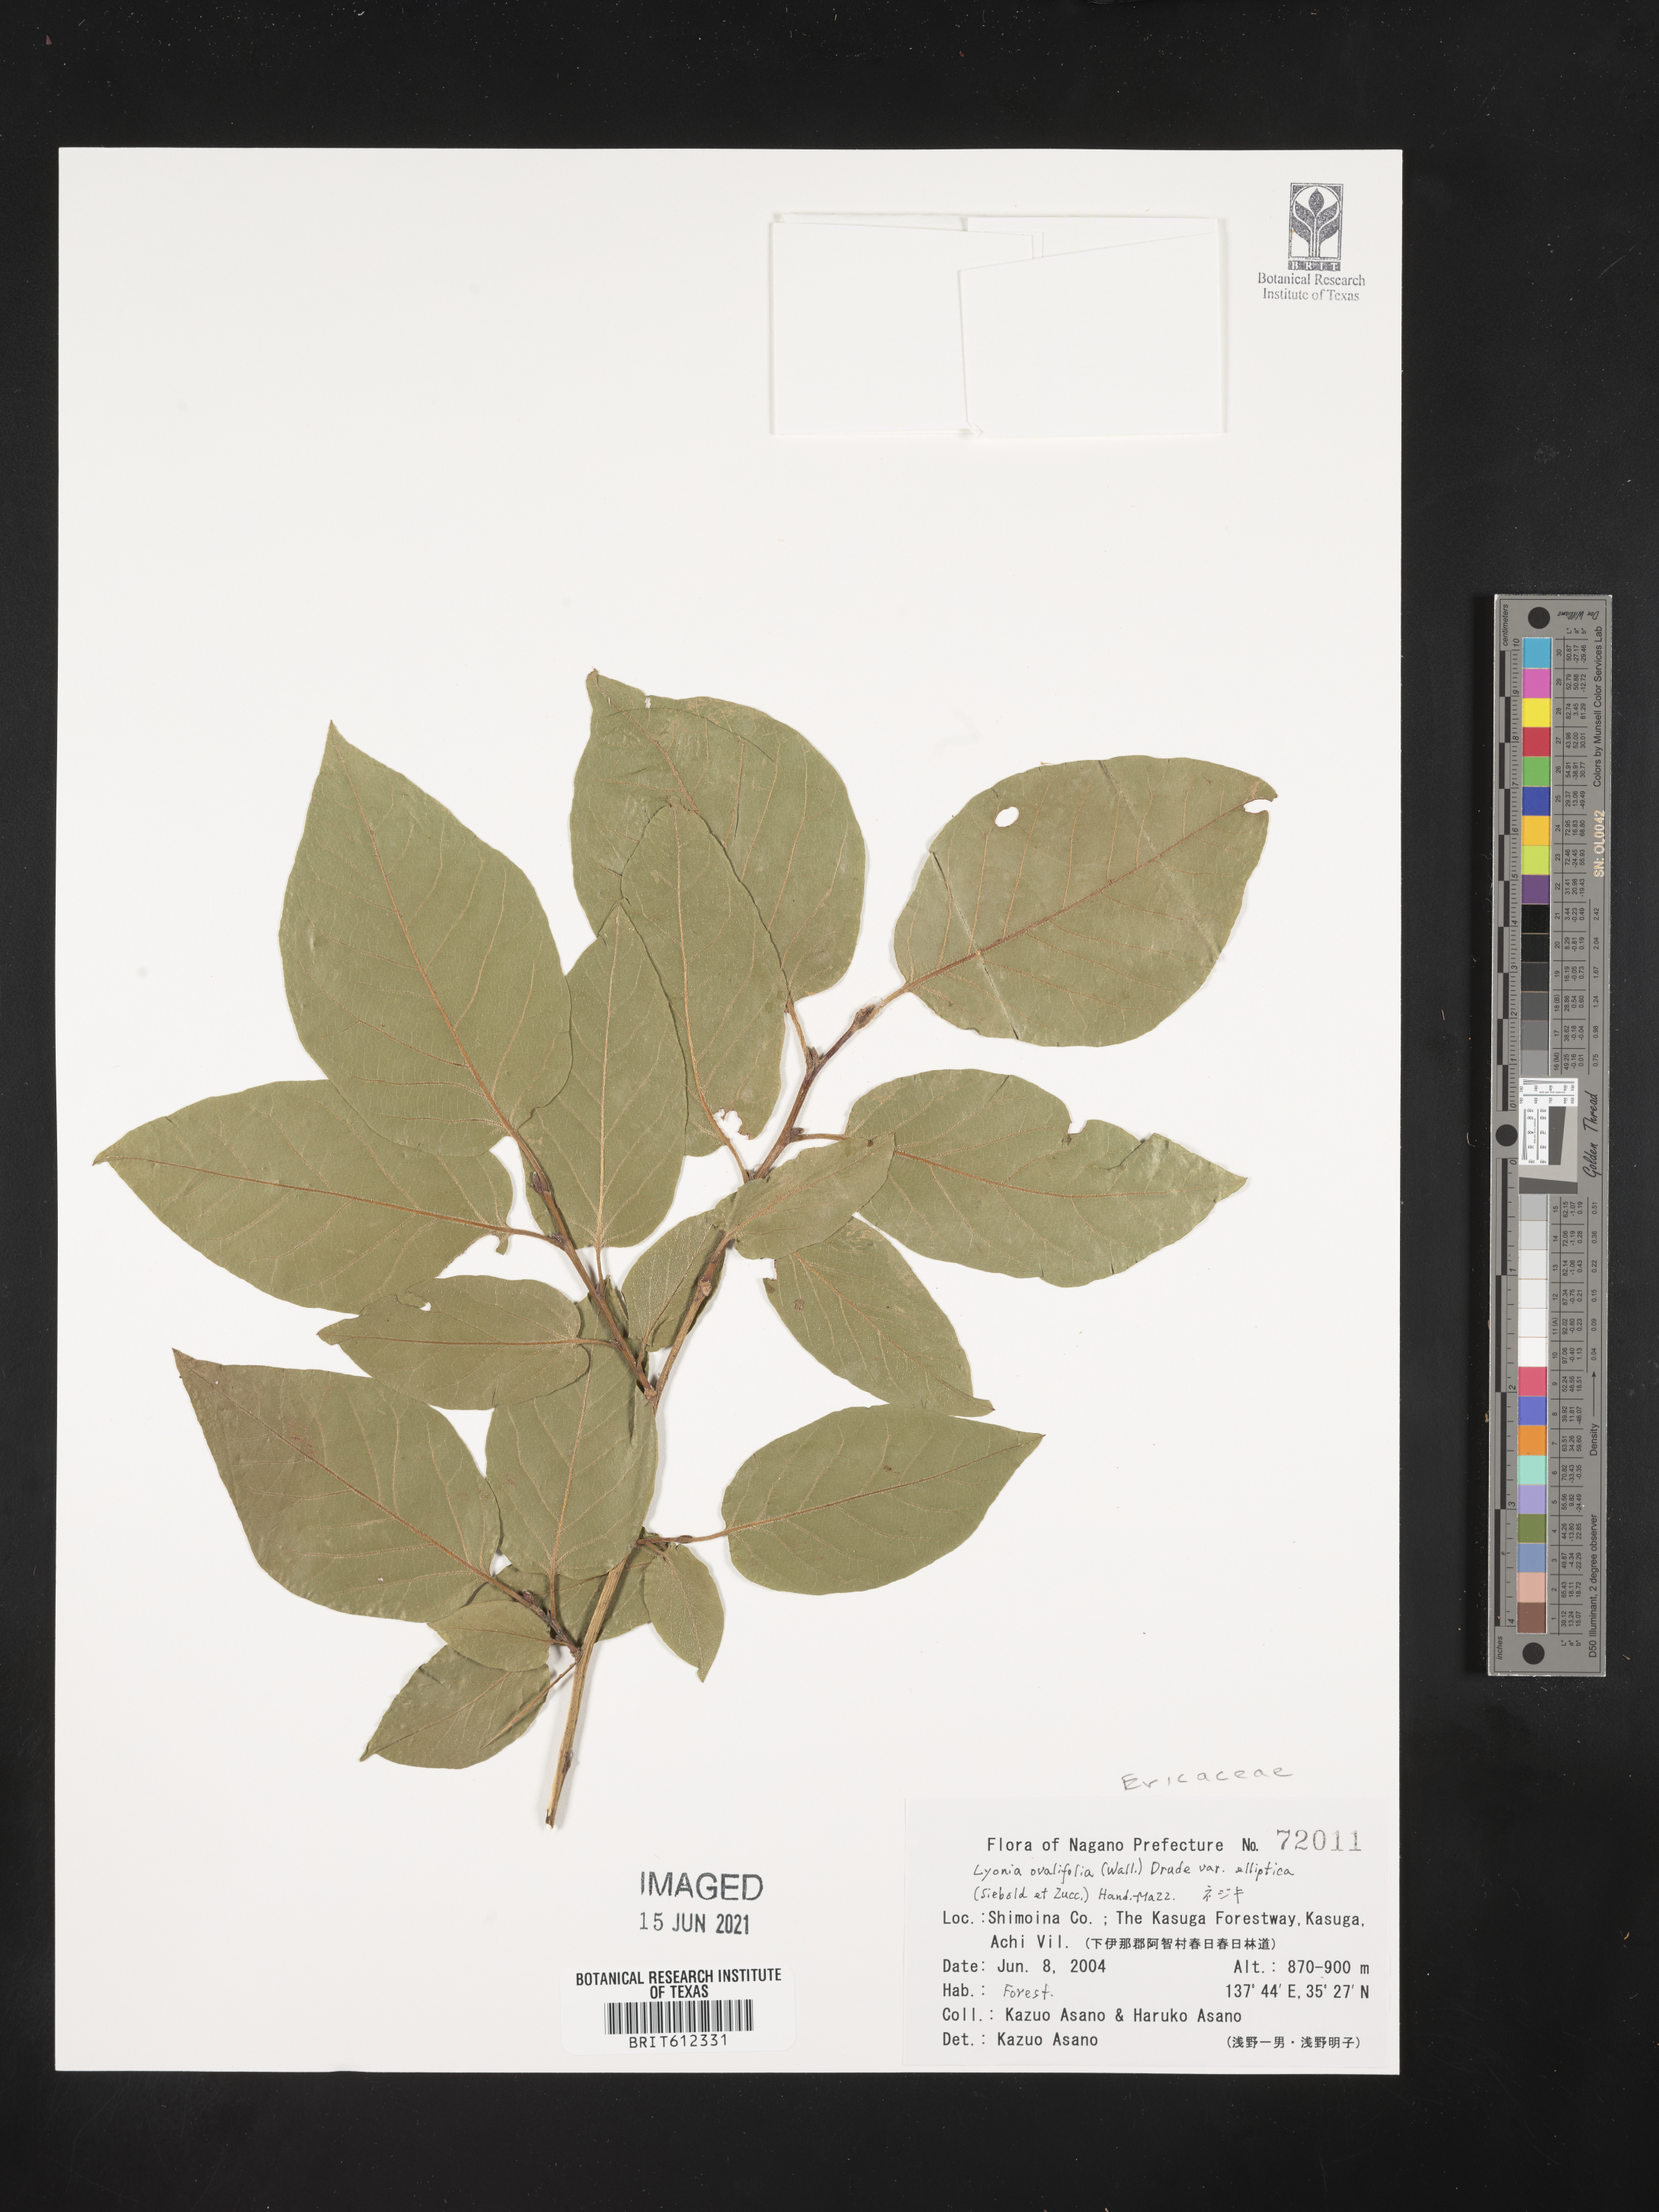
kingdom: Plantae
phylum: Tracheophyta
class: Magnoliopsida
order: Ericales
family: Ericaceae
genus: Lyonia
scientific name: Lyonia ovalifolia
